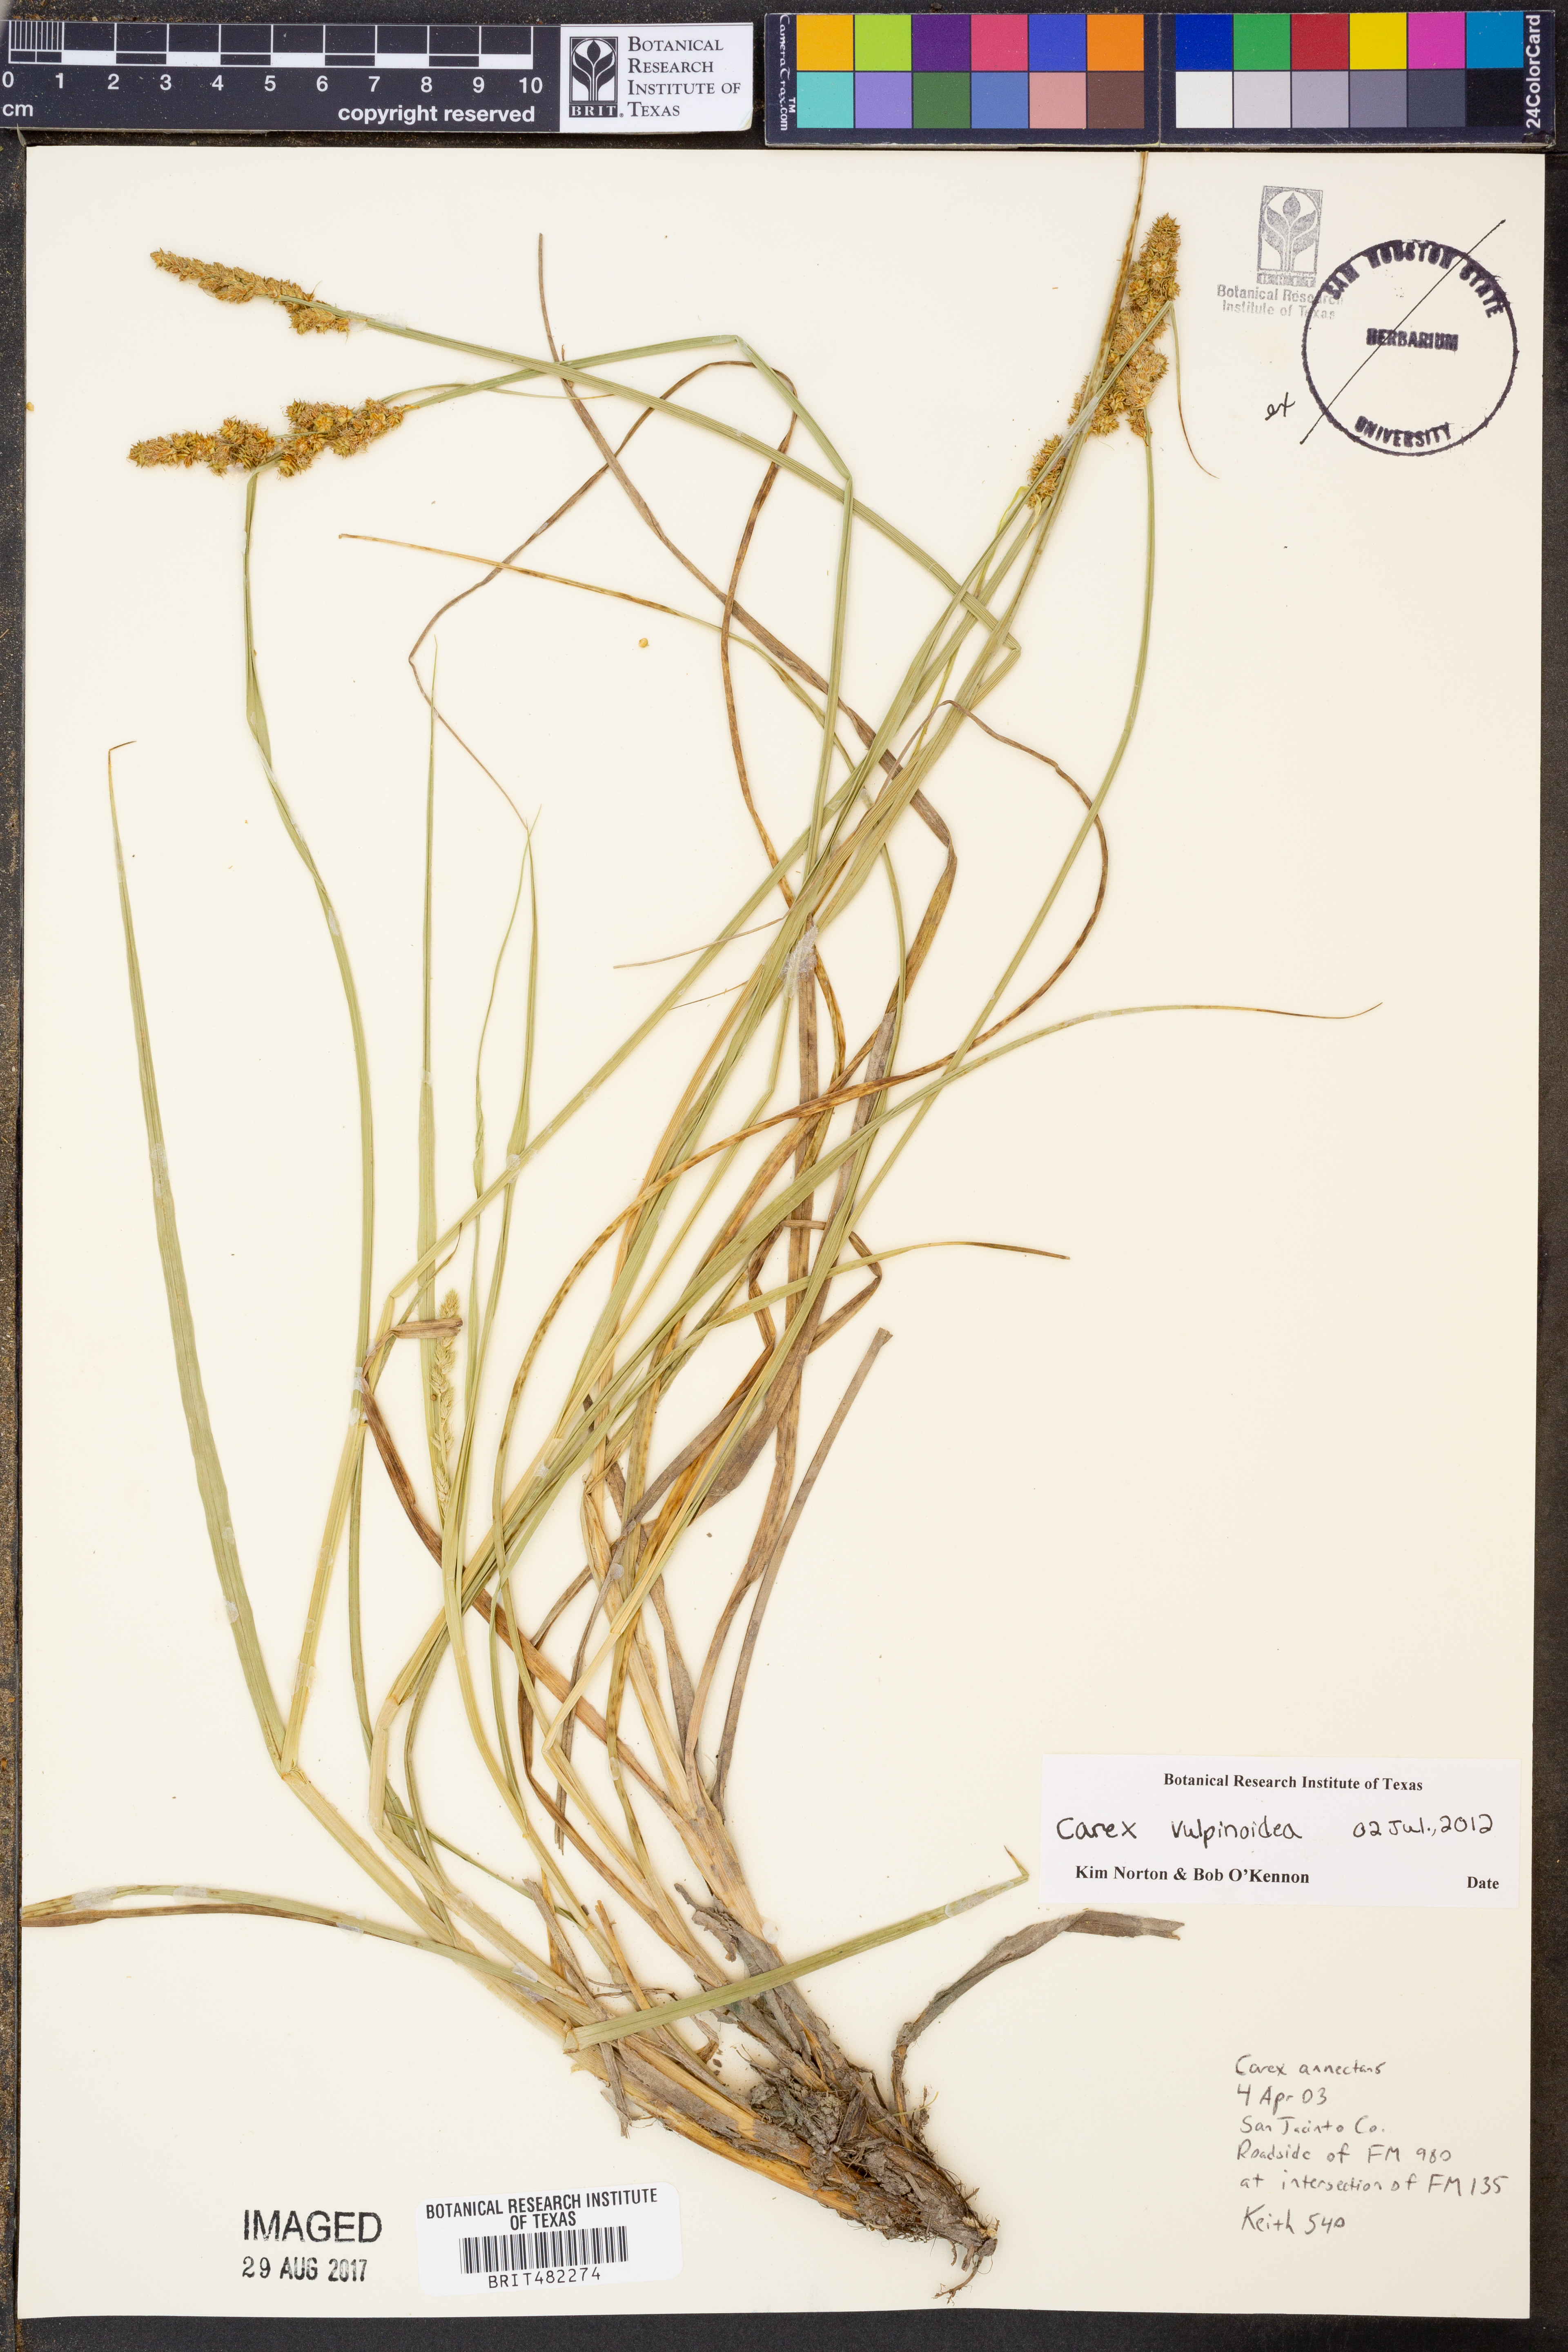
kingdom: Plantae
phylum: Tracheophyta
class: Liliopsida
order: Poales
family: Cyperaceae
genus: Carex
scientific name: Carex vulpinoidea
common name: American fox-sedge
